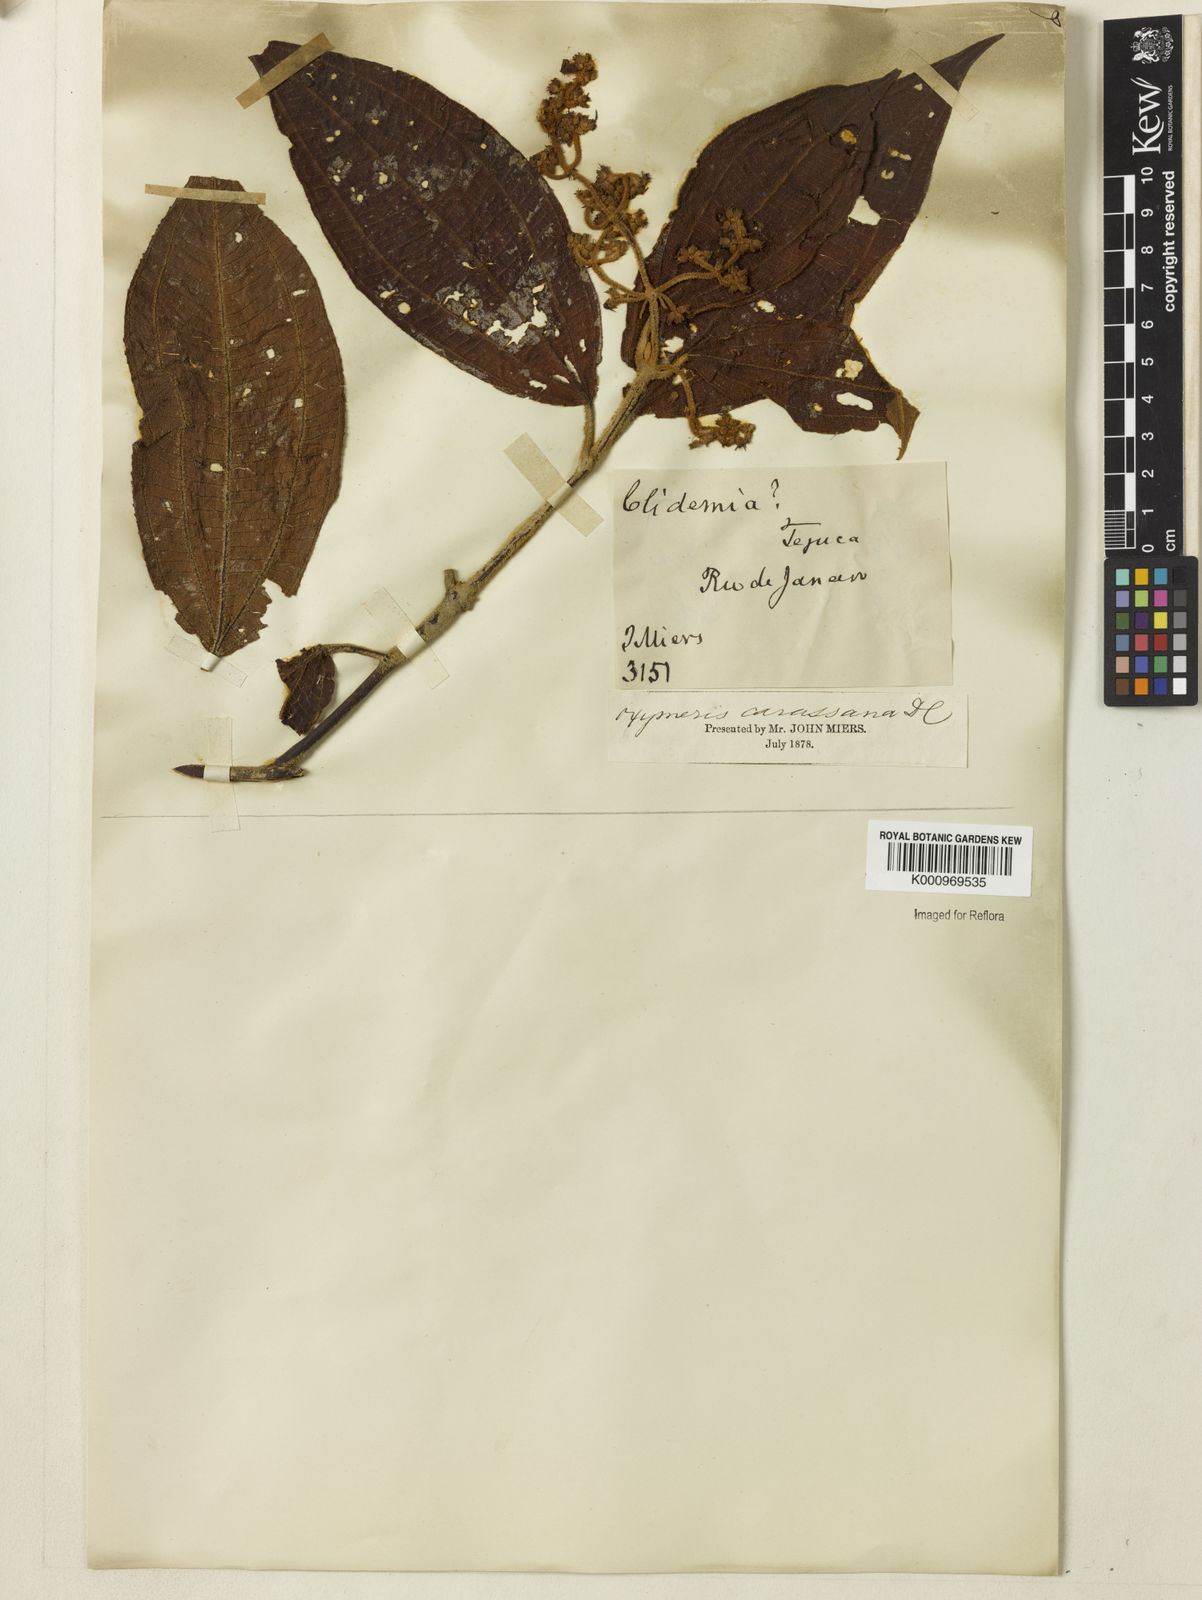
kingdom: Plantae
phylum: Tracheophyta
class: Magnoliopsida
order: Myrtales
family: Melastomataceae
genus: Miconia
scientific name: Miconia sublanata
